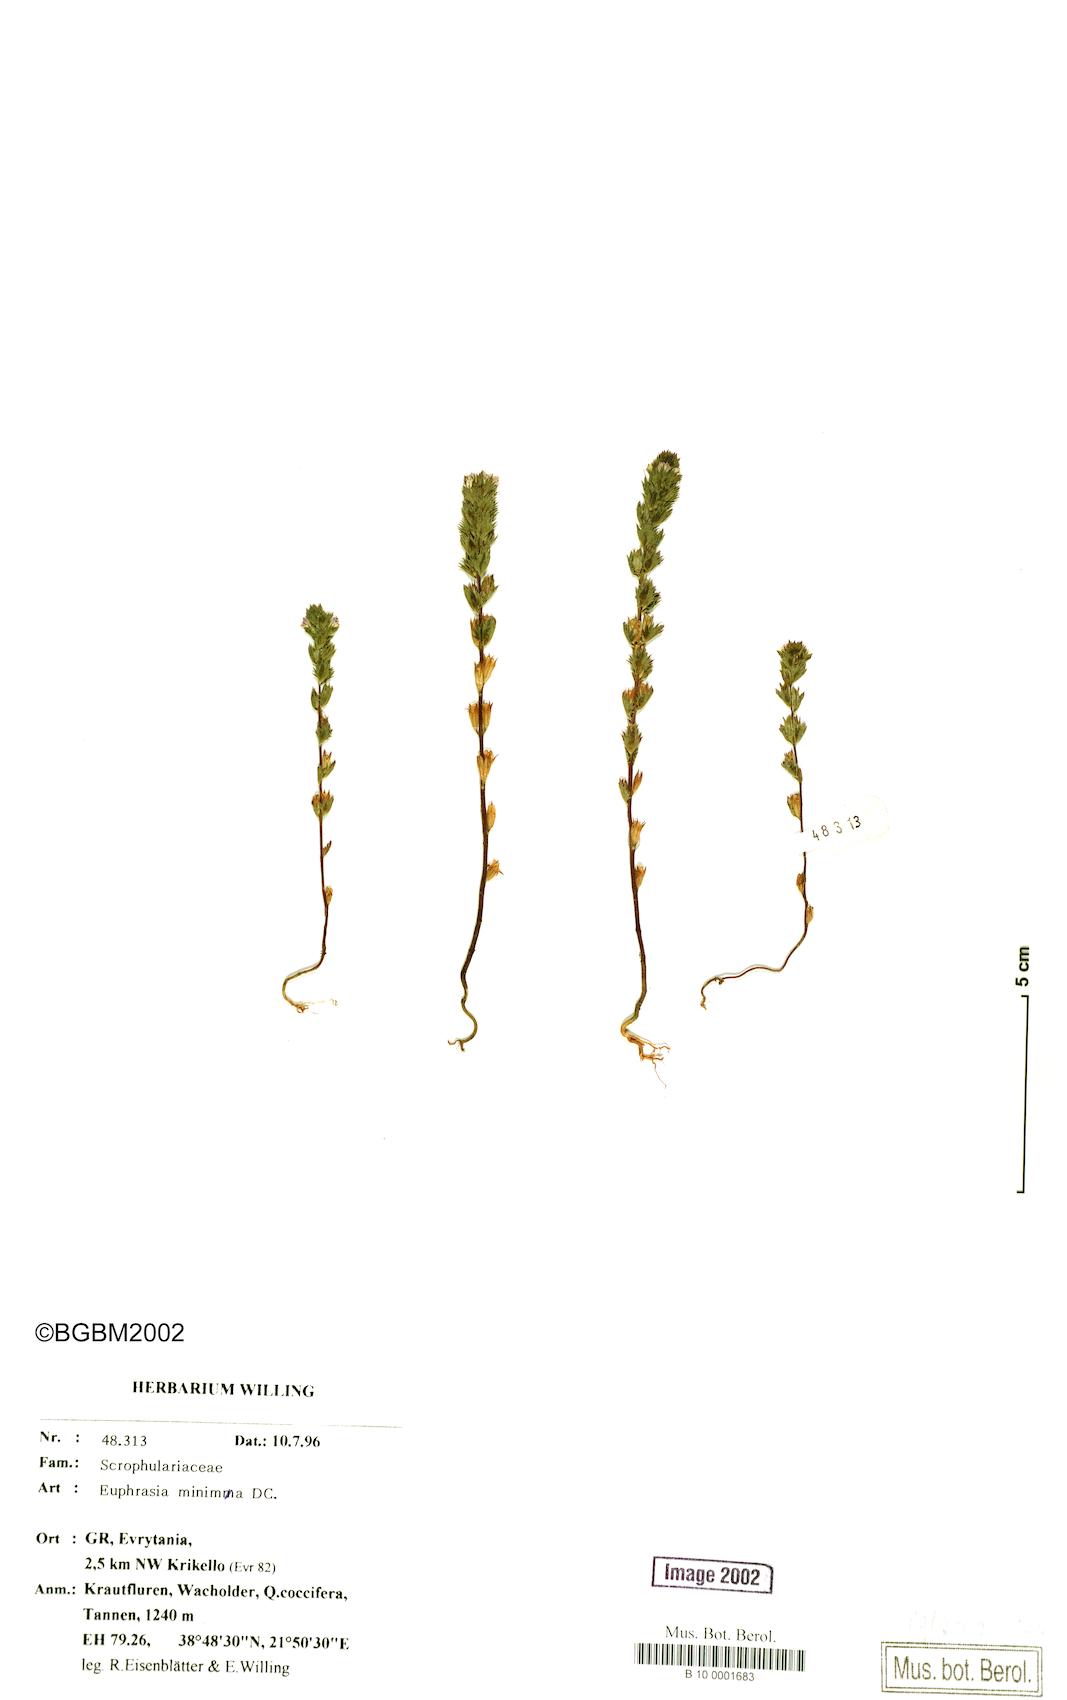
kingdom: Plantae
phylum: Tracheophyta
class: Magnoliopsida
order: Lamiales
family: Orobanchaceae
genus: Euphrasia
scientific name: Euphrasia minima
